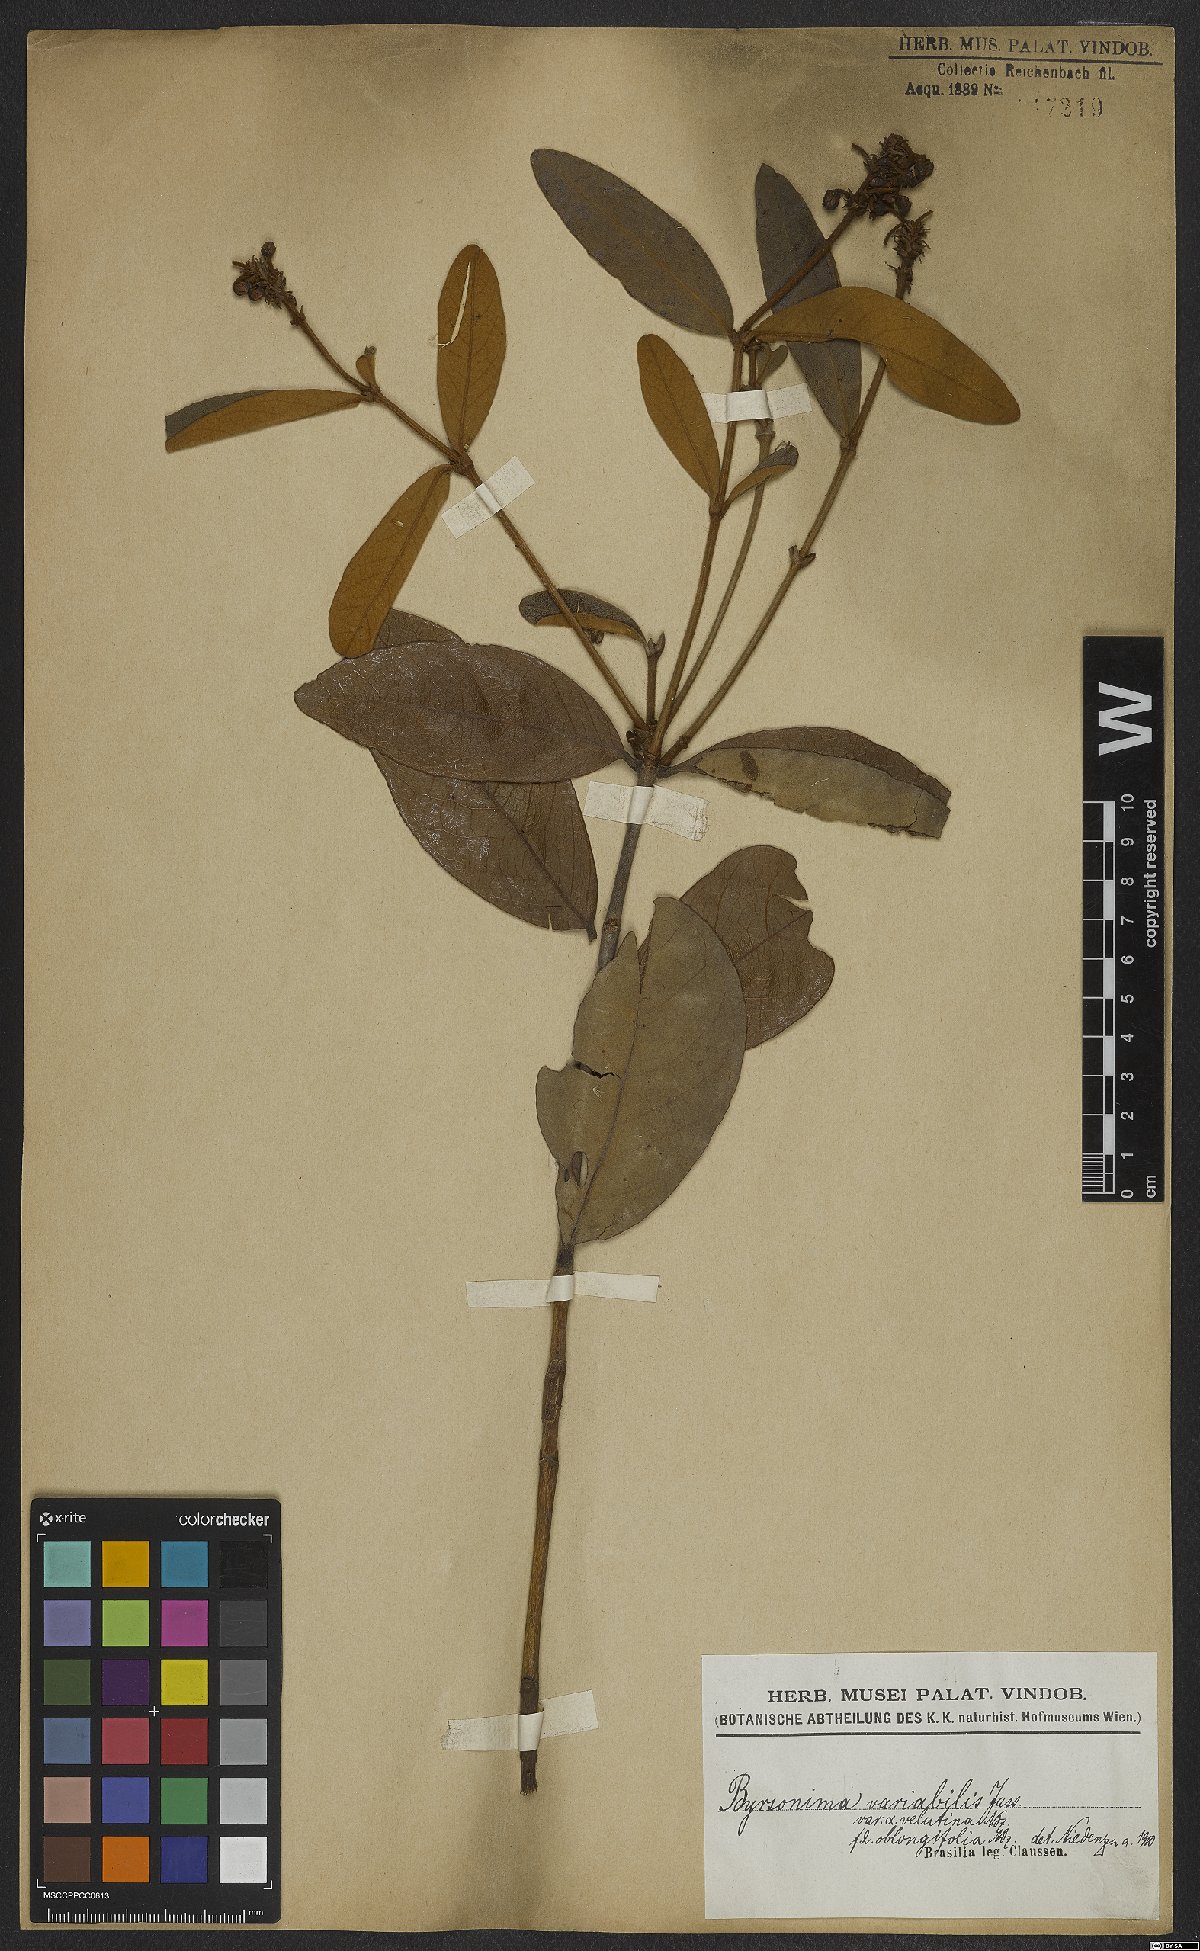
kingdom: Plantae
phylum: Tracheophyta
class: Magnoliopsida
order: Malpighiales
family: Malpighiaceae
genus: Byrsonima
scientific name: Byrsonima variabilis
